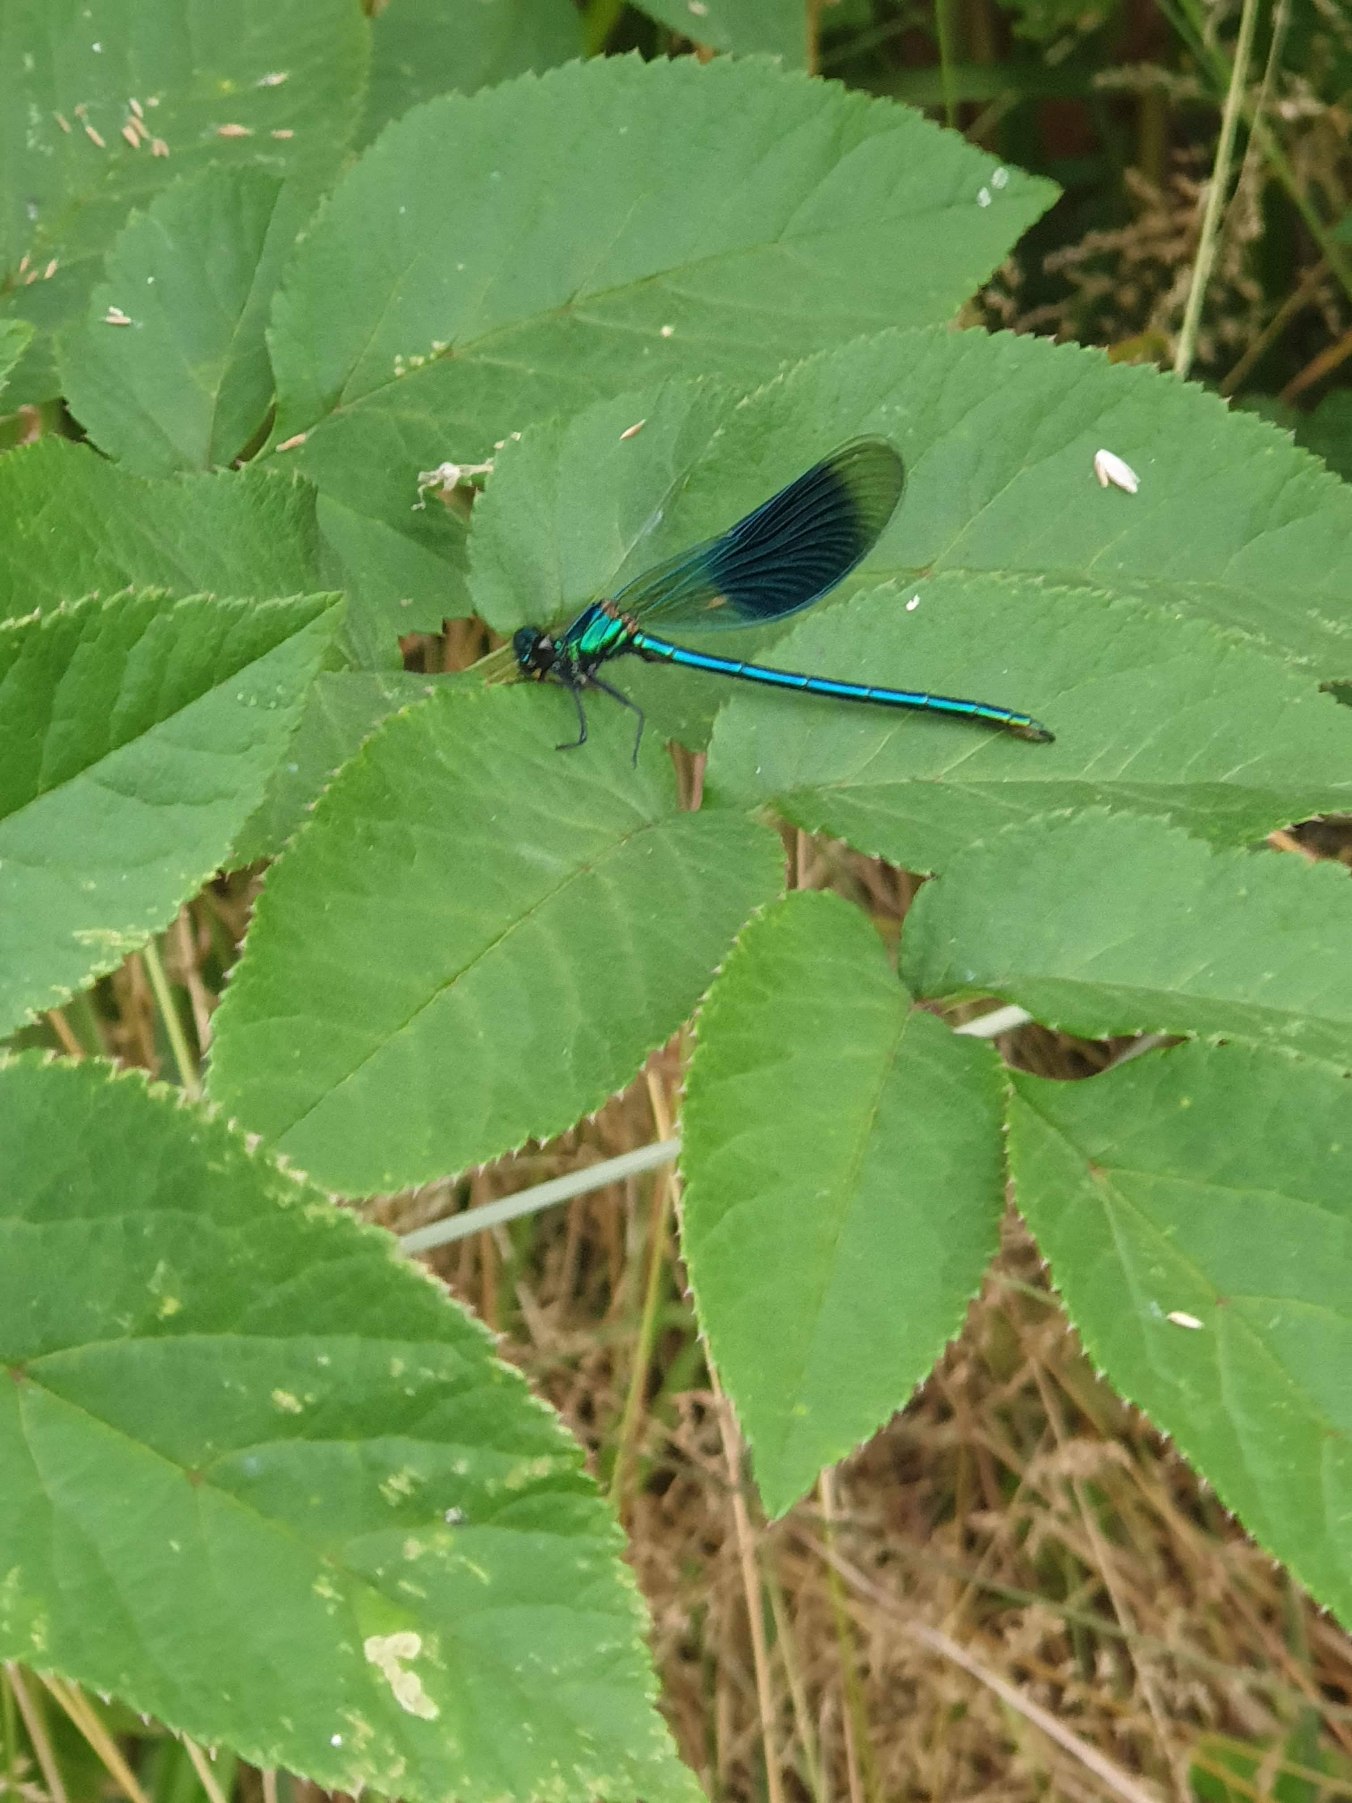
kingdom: Animalia
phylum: Arthropoda
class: Insecta
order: Odonata
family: Calopterygidae
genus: Calopteryx
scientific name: Calopteryx splendens
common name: Blåbåndet pragtvandnymfe
